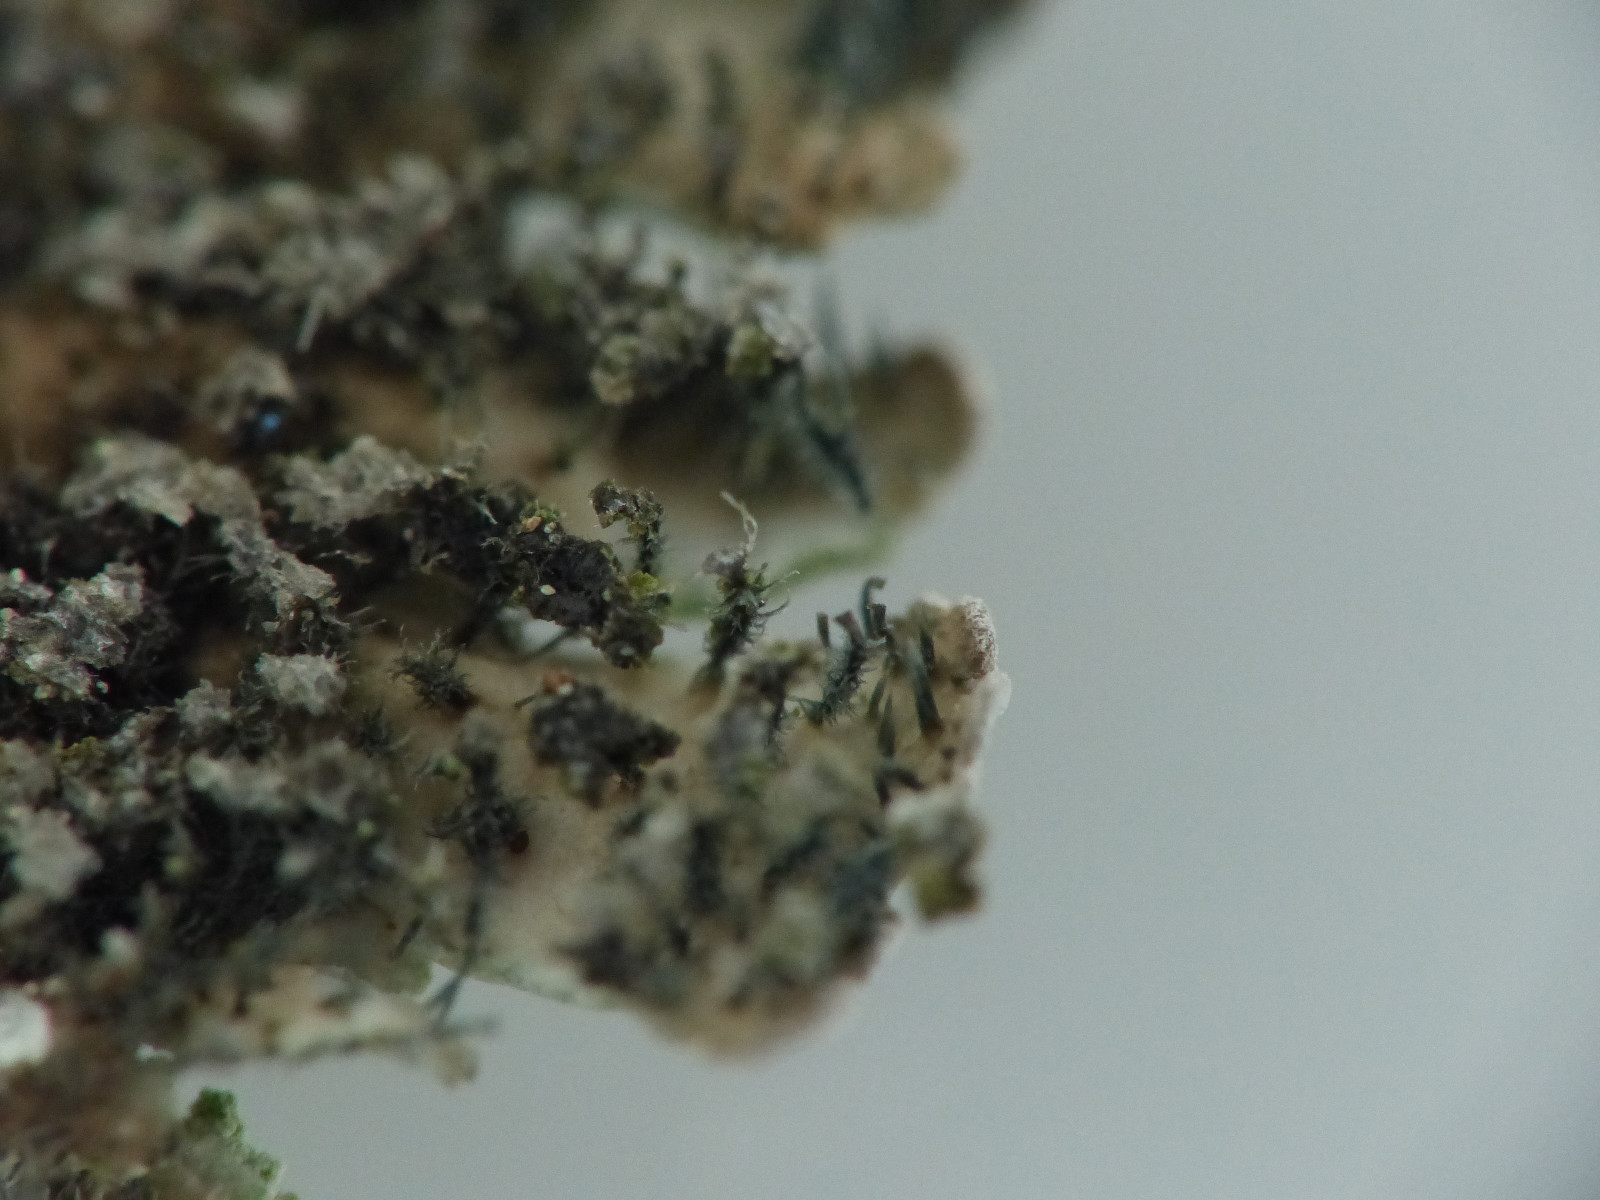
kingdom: Fungi
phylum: Ascomycota
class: Lecanoromycetes
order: Caliciales
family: Physciaceae
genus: Physconia
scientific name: Physconia enteroxantha
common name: grynet dugrosetlav
